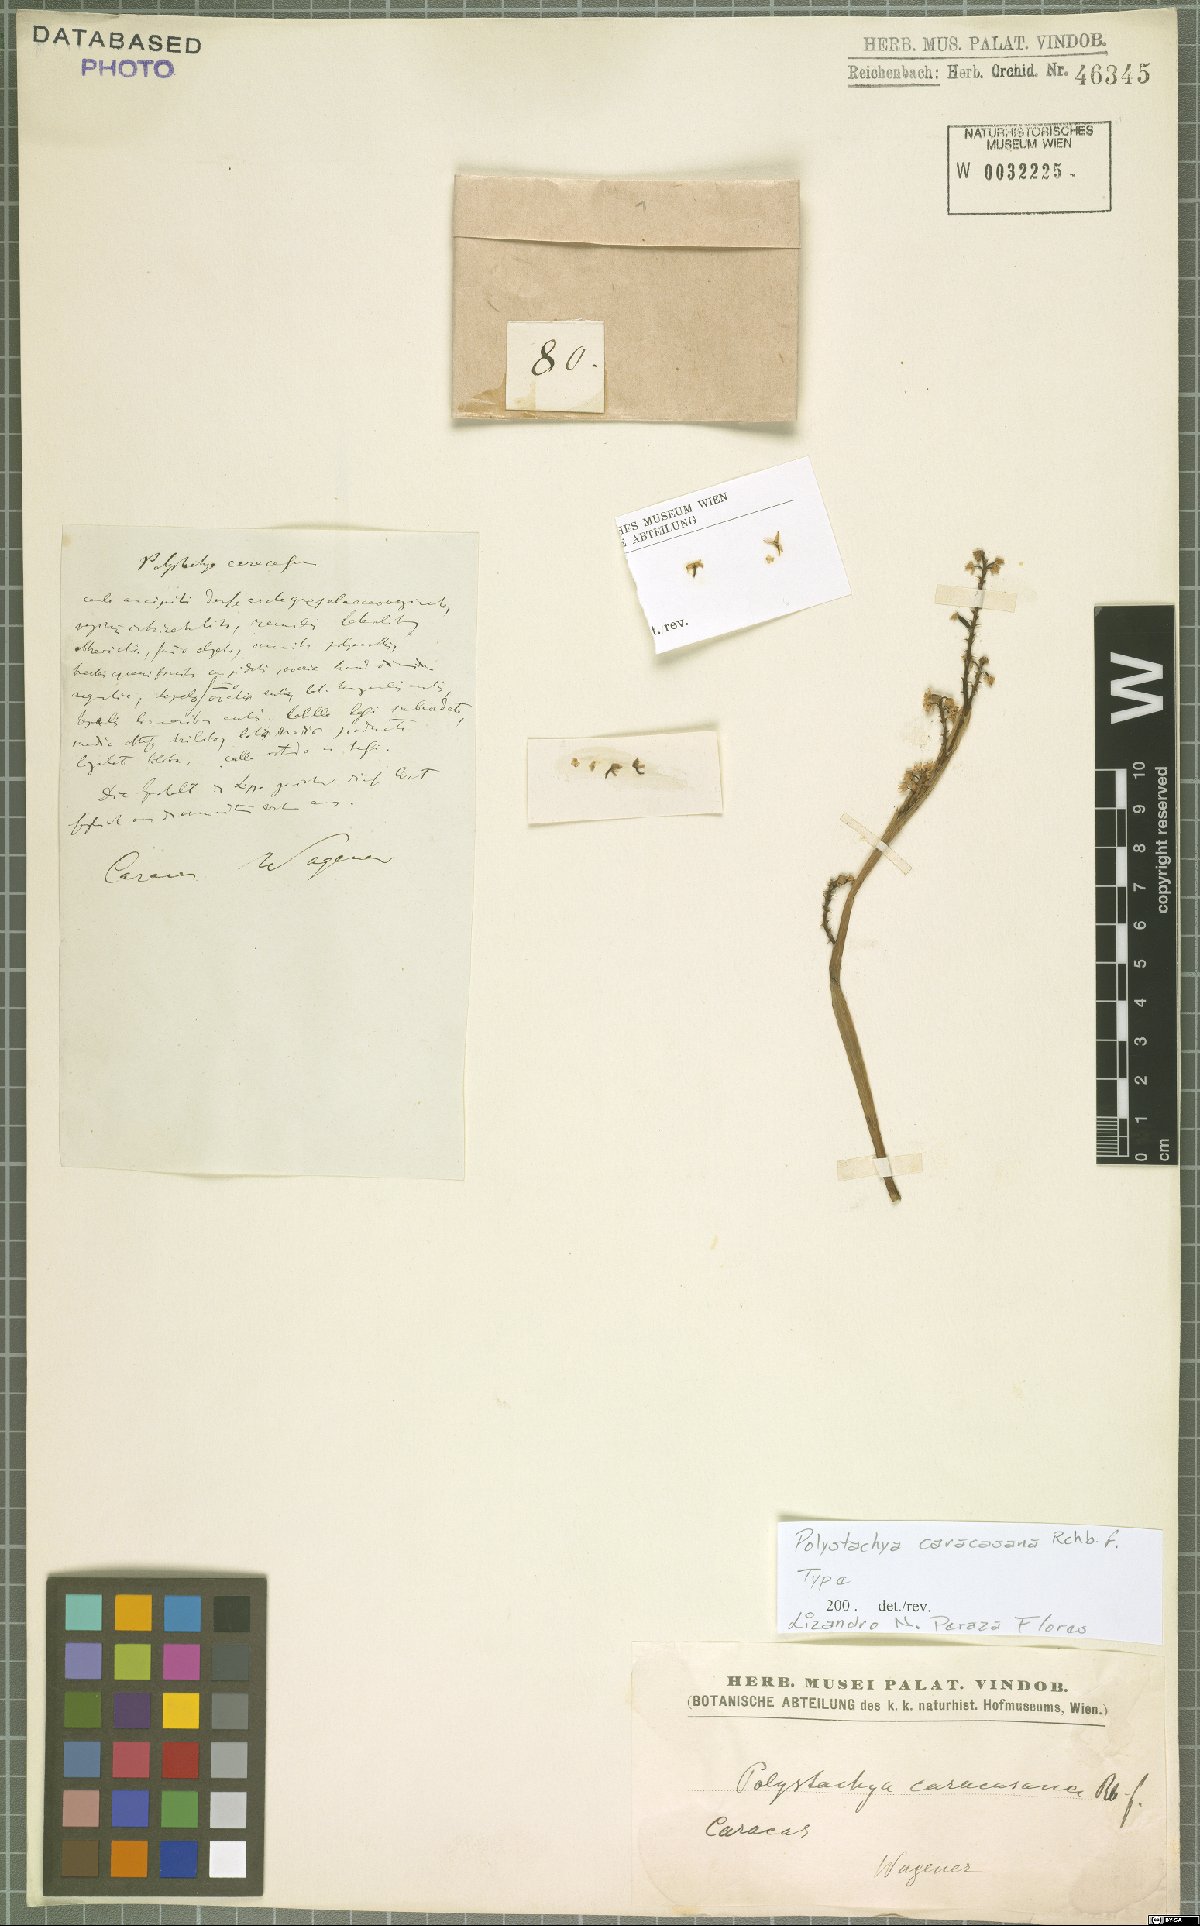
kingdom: Plantae
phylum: Tracheophyta
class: Liliopsida
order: Asparagales
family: Orchidaceae
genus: Polystachya
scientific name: Polystachya foliosa
